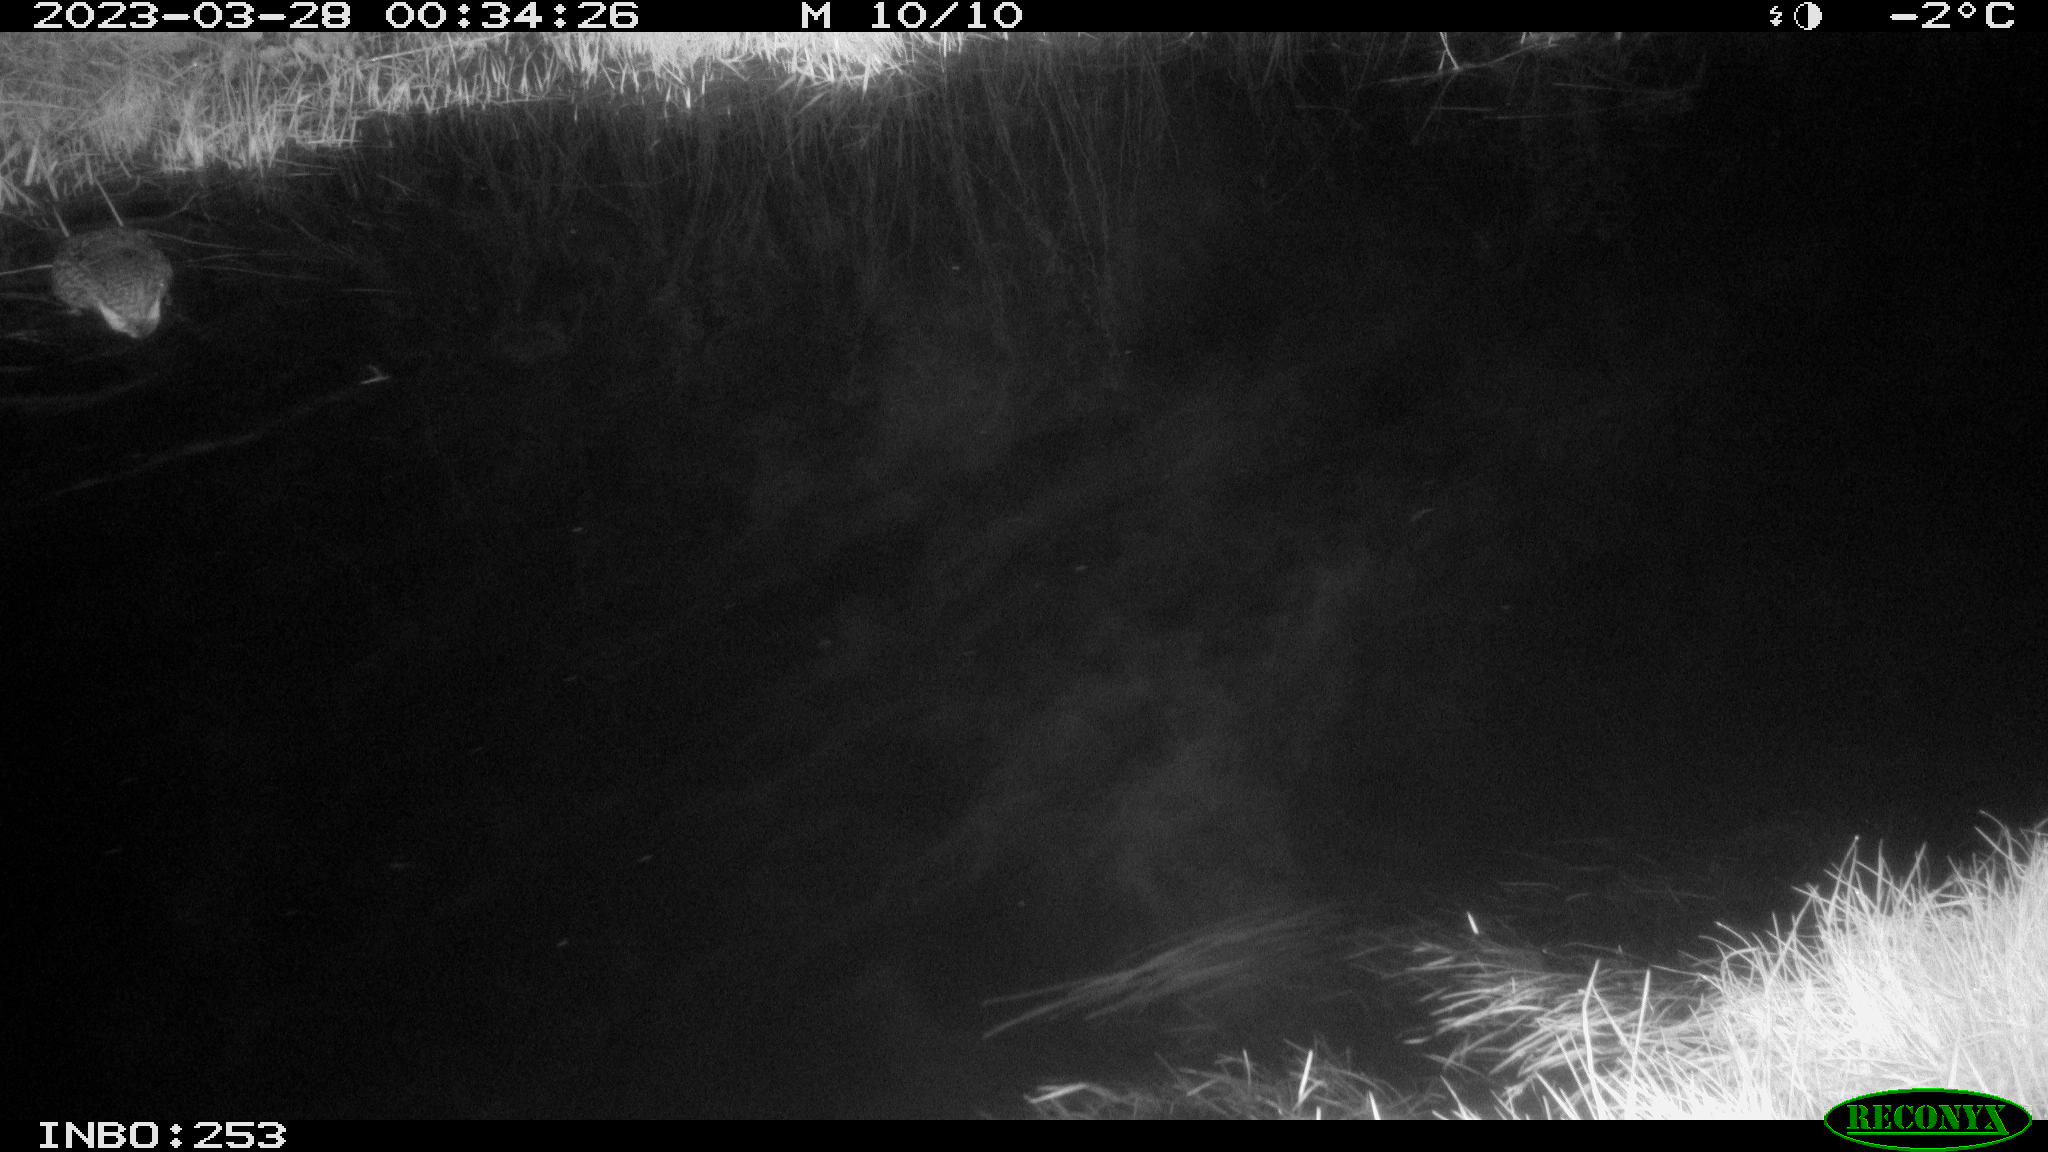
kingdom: Animalia
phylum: Chordata
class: Mammalia
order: Rodentia
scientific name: Rodentia
